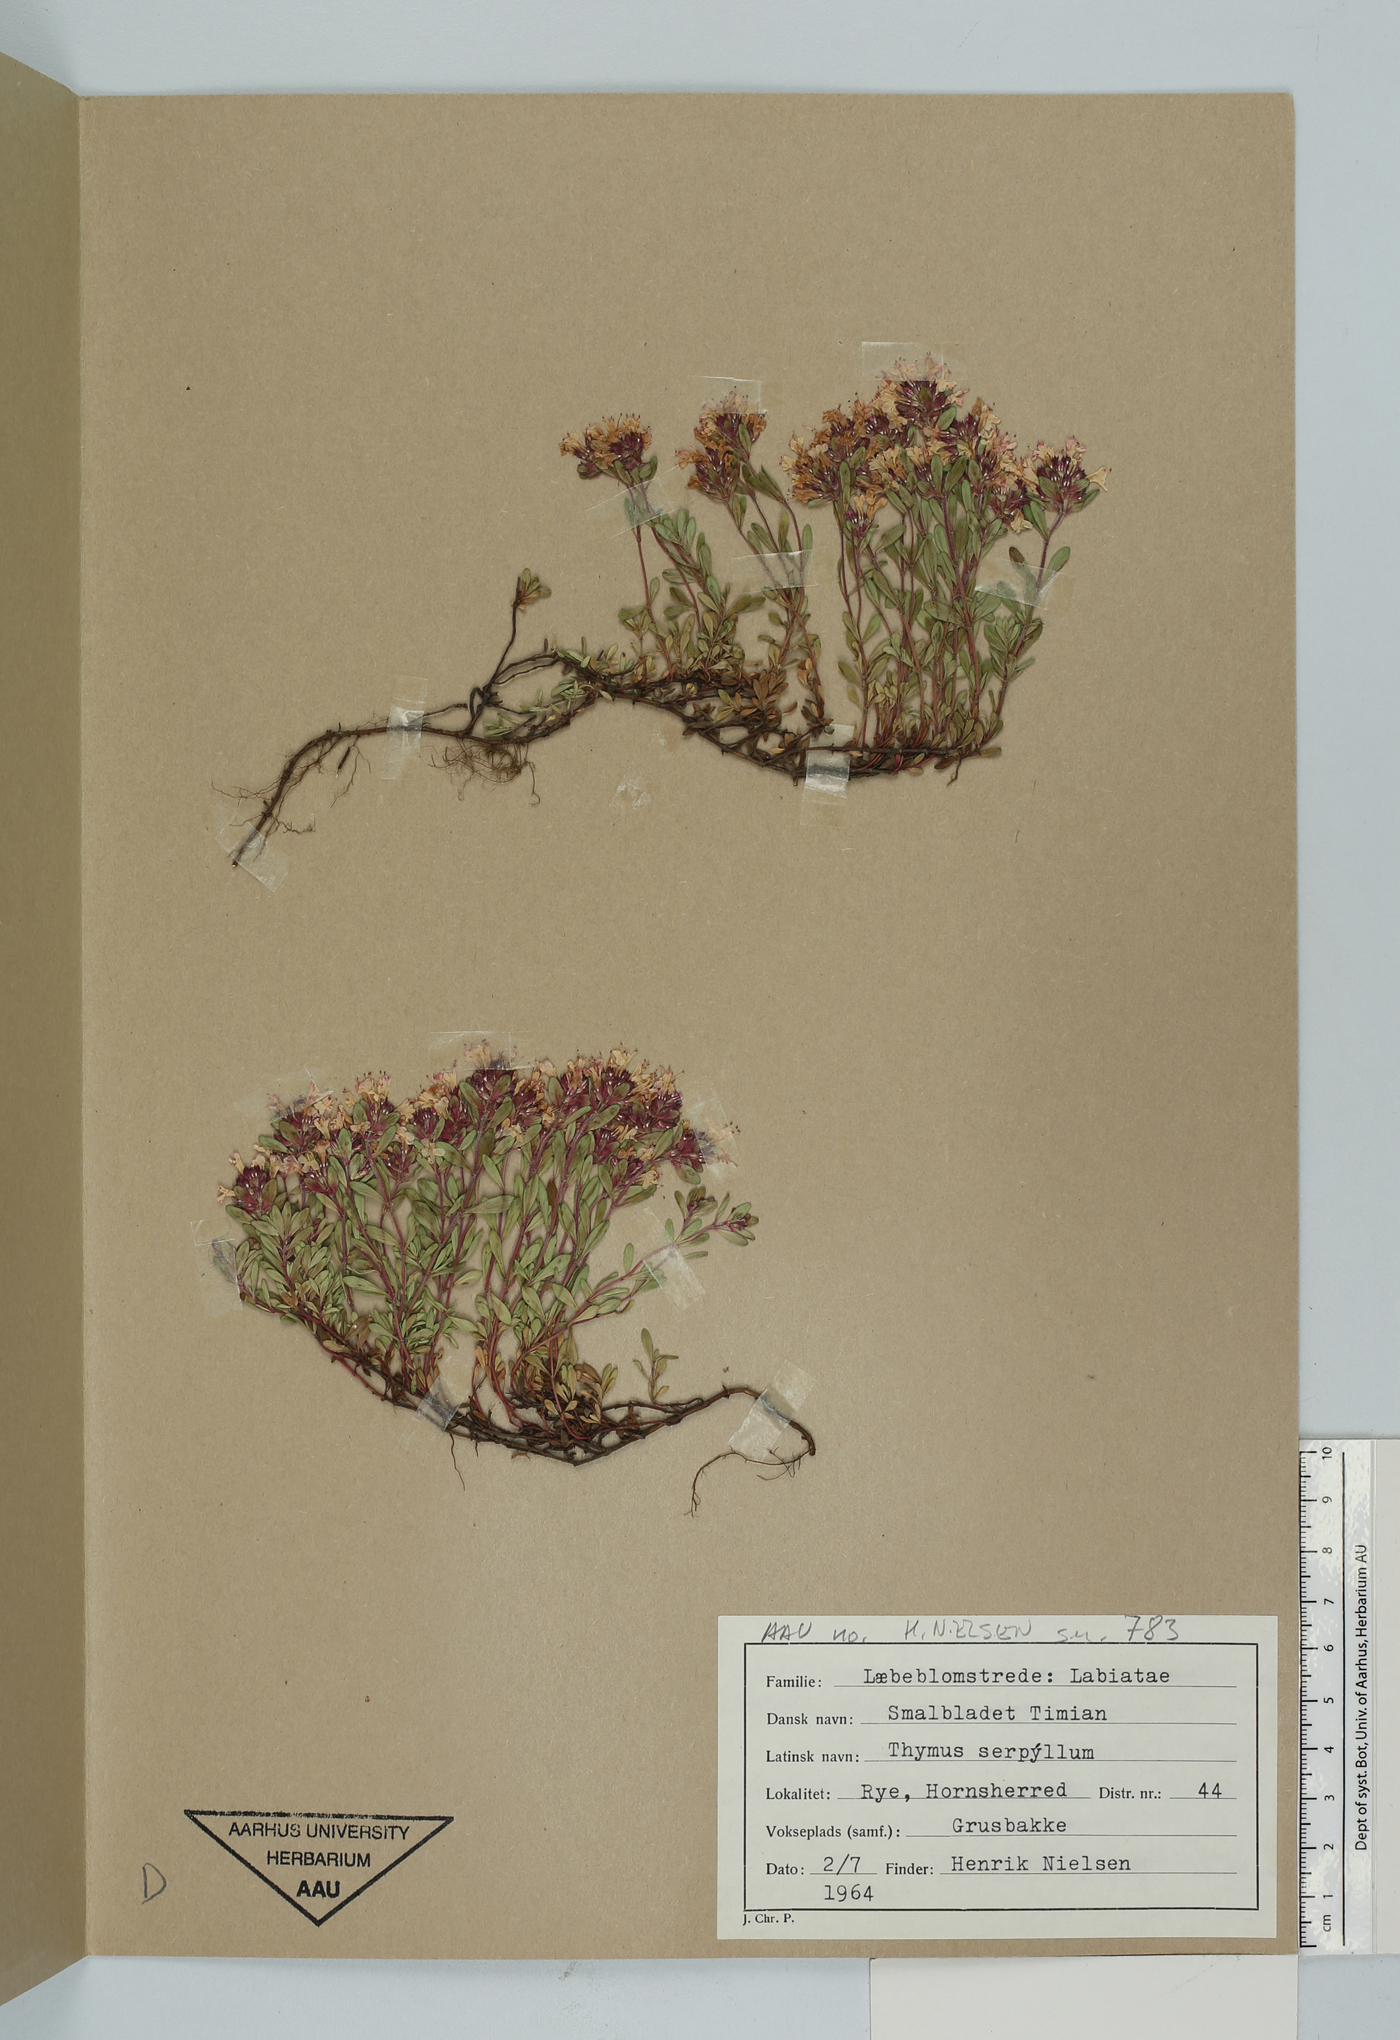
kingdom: Plantae
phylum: Tracheophyta
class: Magnoliopsida
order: Lamiales
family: Lamiaceae
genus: Thymus
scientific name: Thymus serpyllum
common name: Breckland thyme
